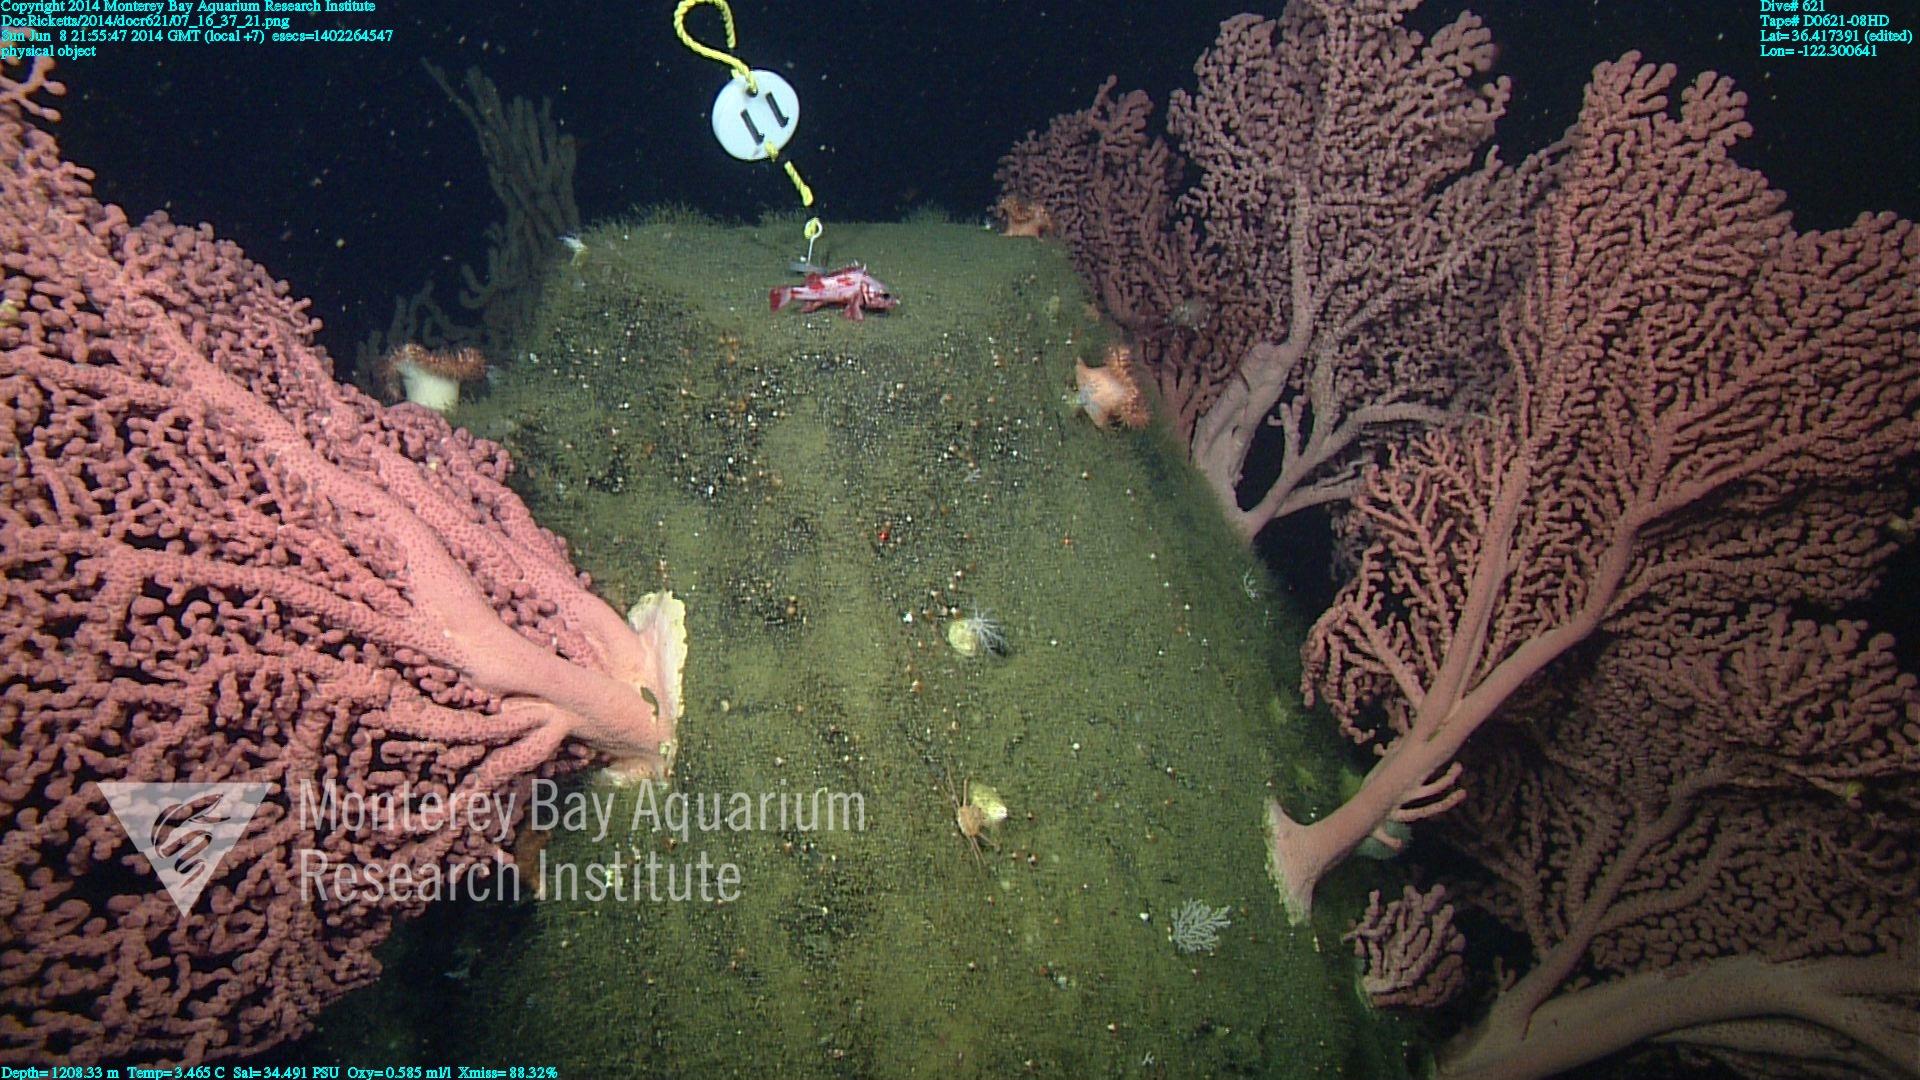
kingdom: Animalia
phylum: Cnidaria
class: Anthozoa
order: Scleralcyonacea
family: Coralliidae
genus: Paragorgia
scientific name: Paragorgia arborea
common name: Bubble gum coral
